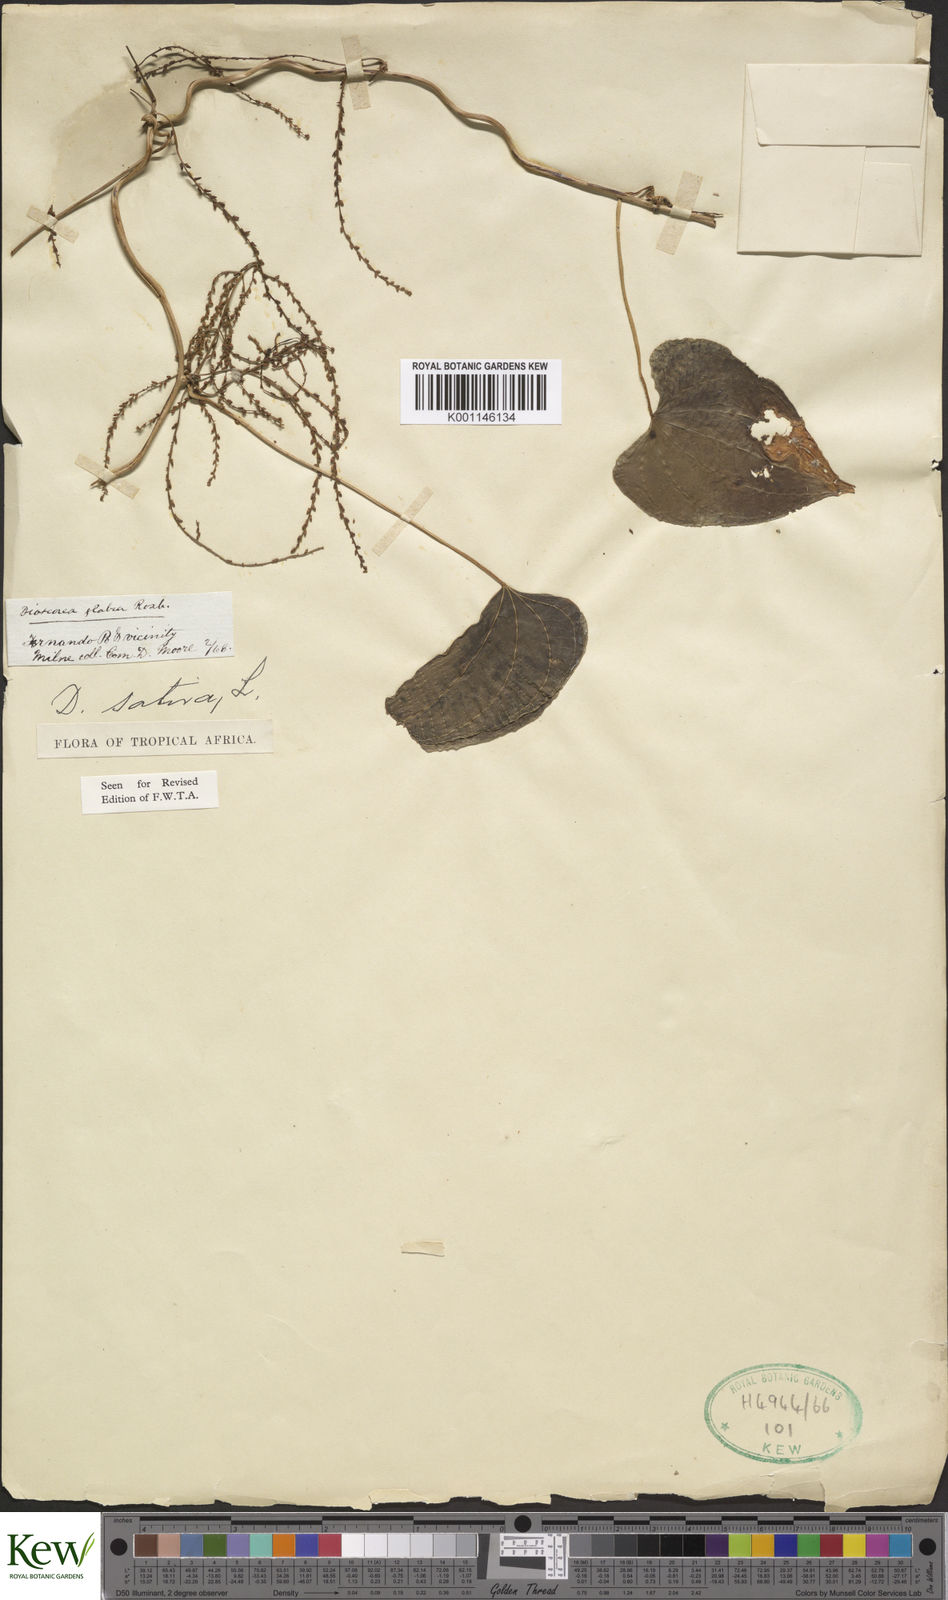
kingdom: Plantae
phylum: Tracheophyta
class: Liliopsida
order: Dioscoreales
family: Dioscoreaceae
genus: Dioscorea
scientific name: Dioscorea bulbifera
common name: Air yam
